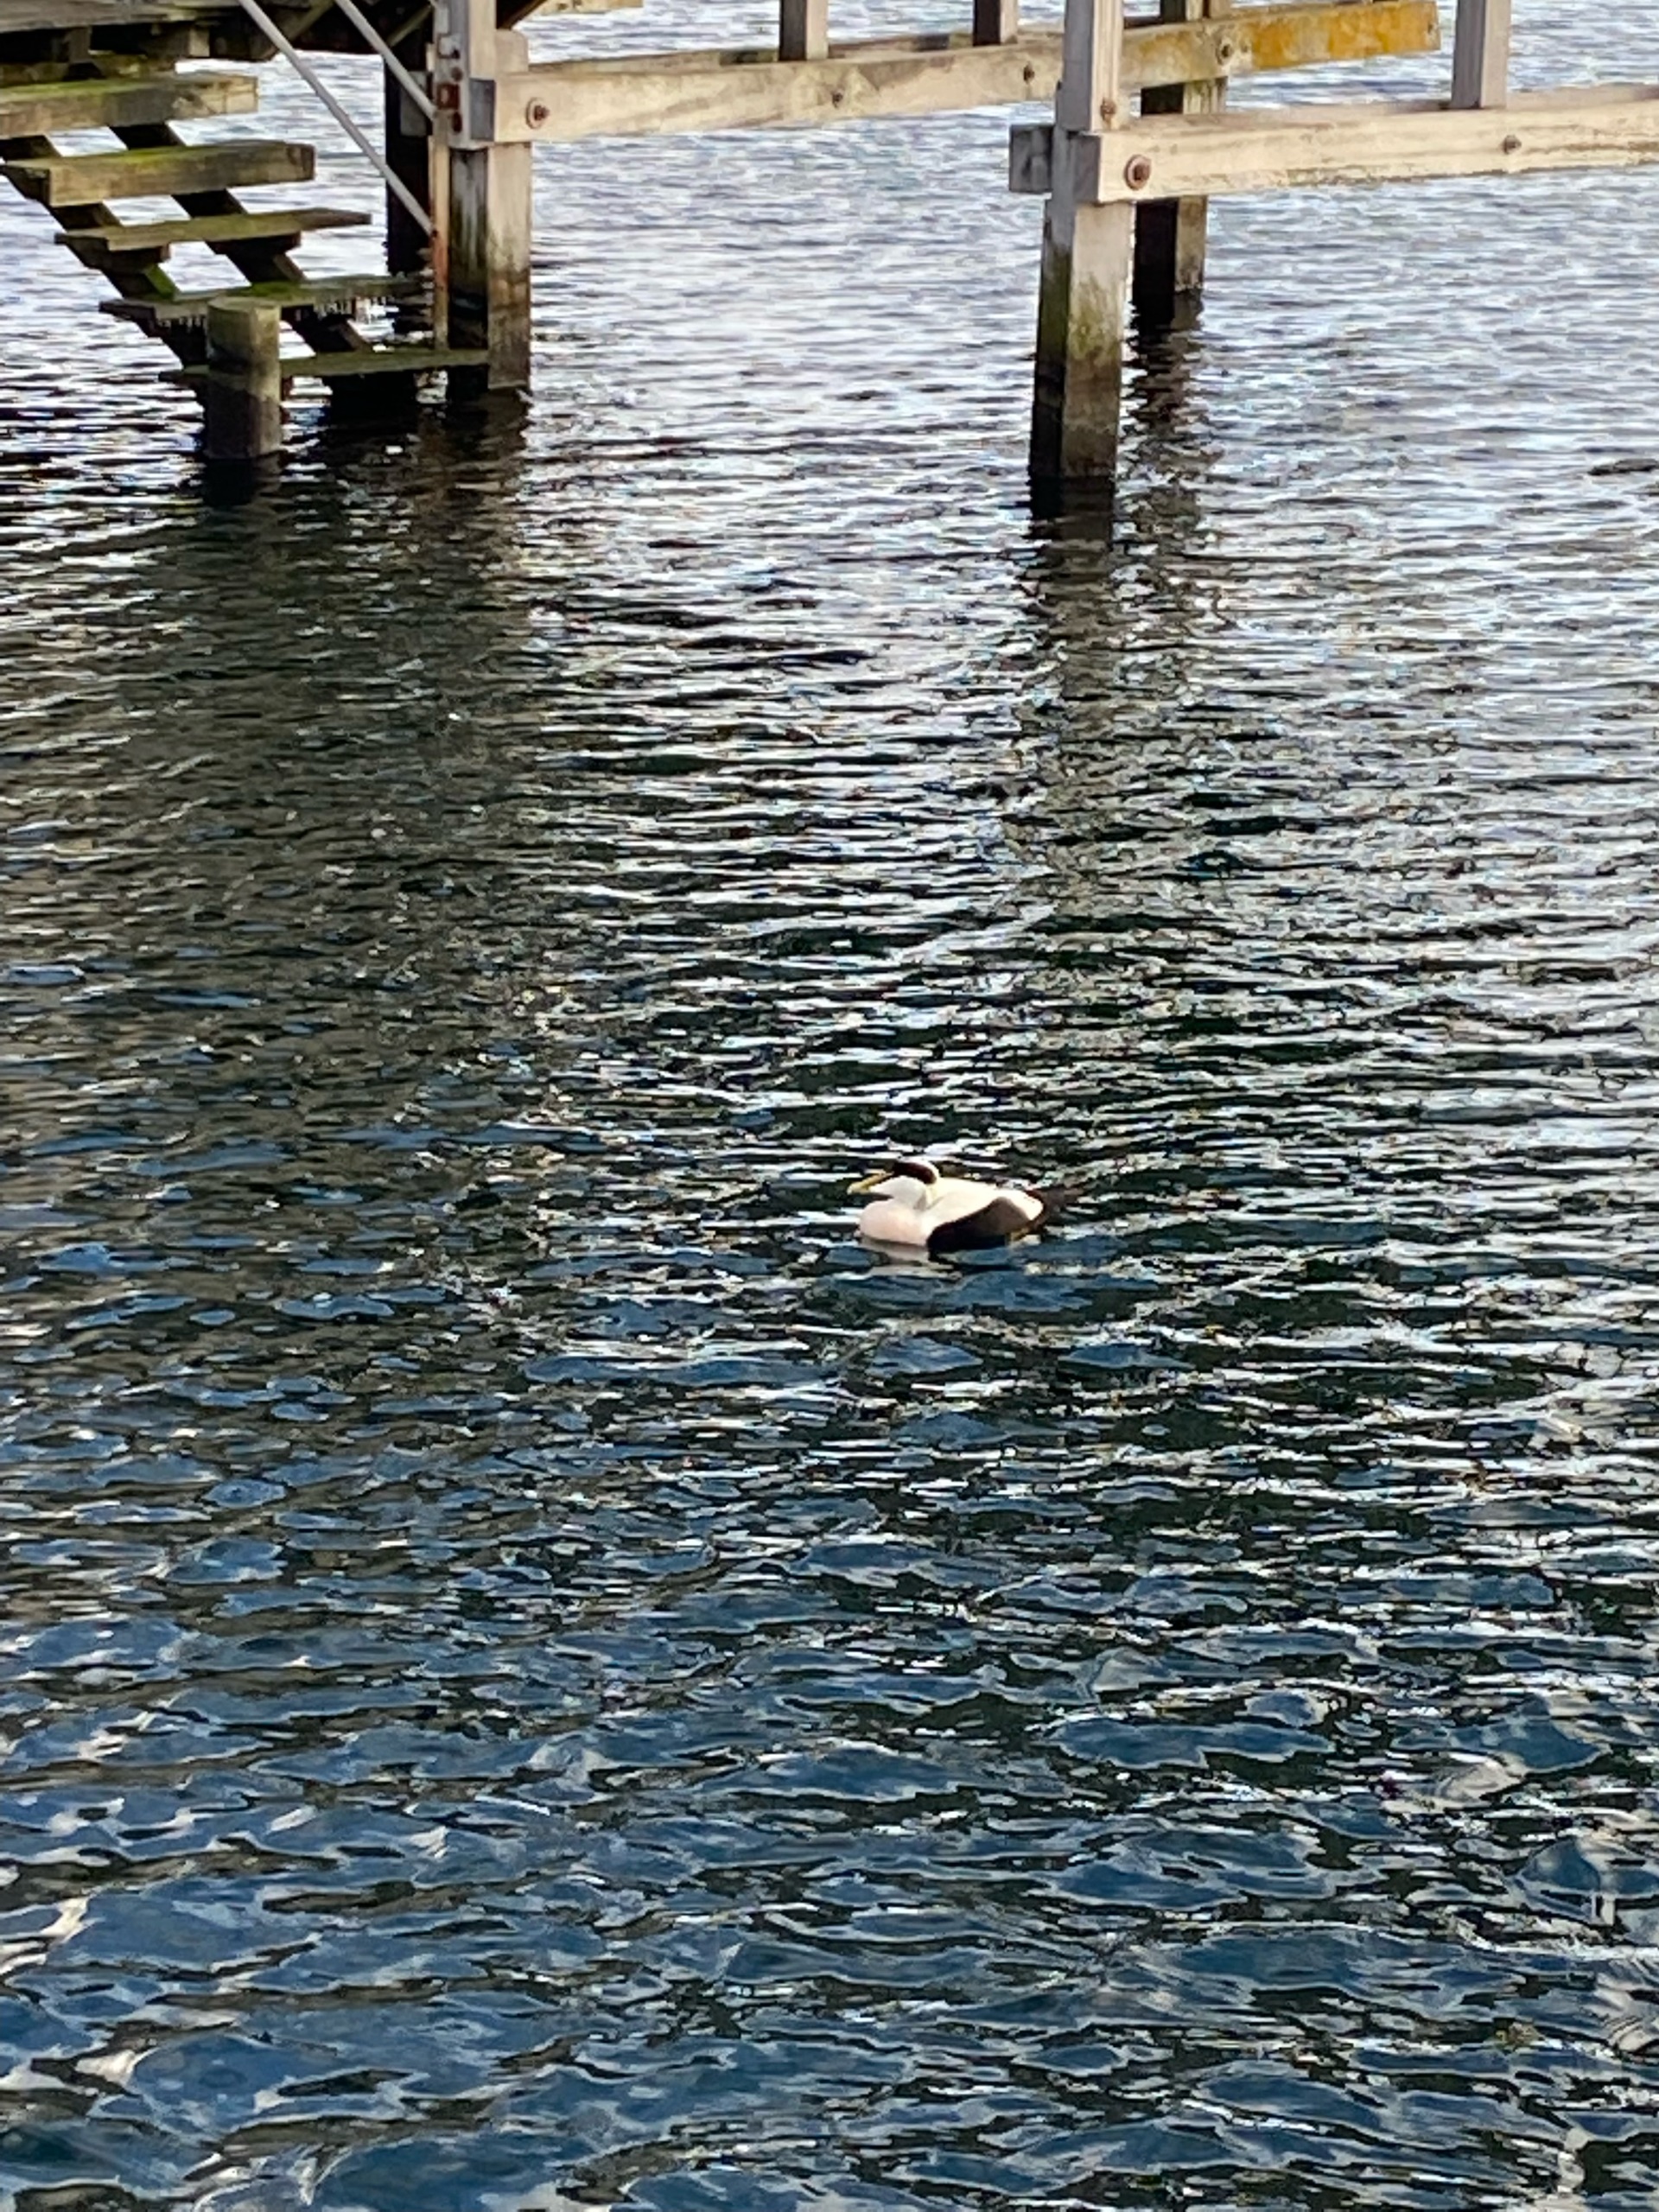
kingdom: Animalia
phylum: Chordata
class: Aves
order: Anseriformes
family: Anatidae
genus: Somateria
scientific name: Somateria mollissima
